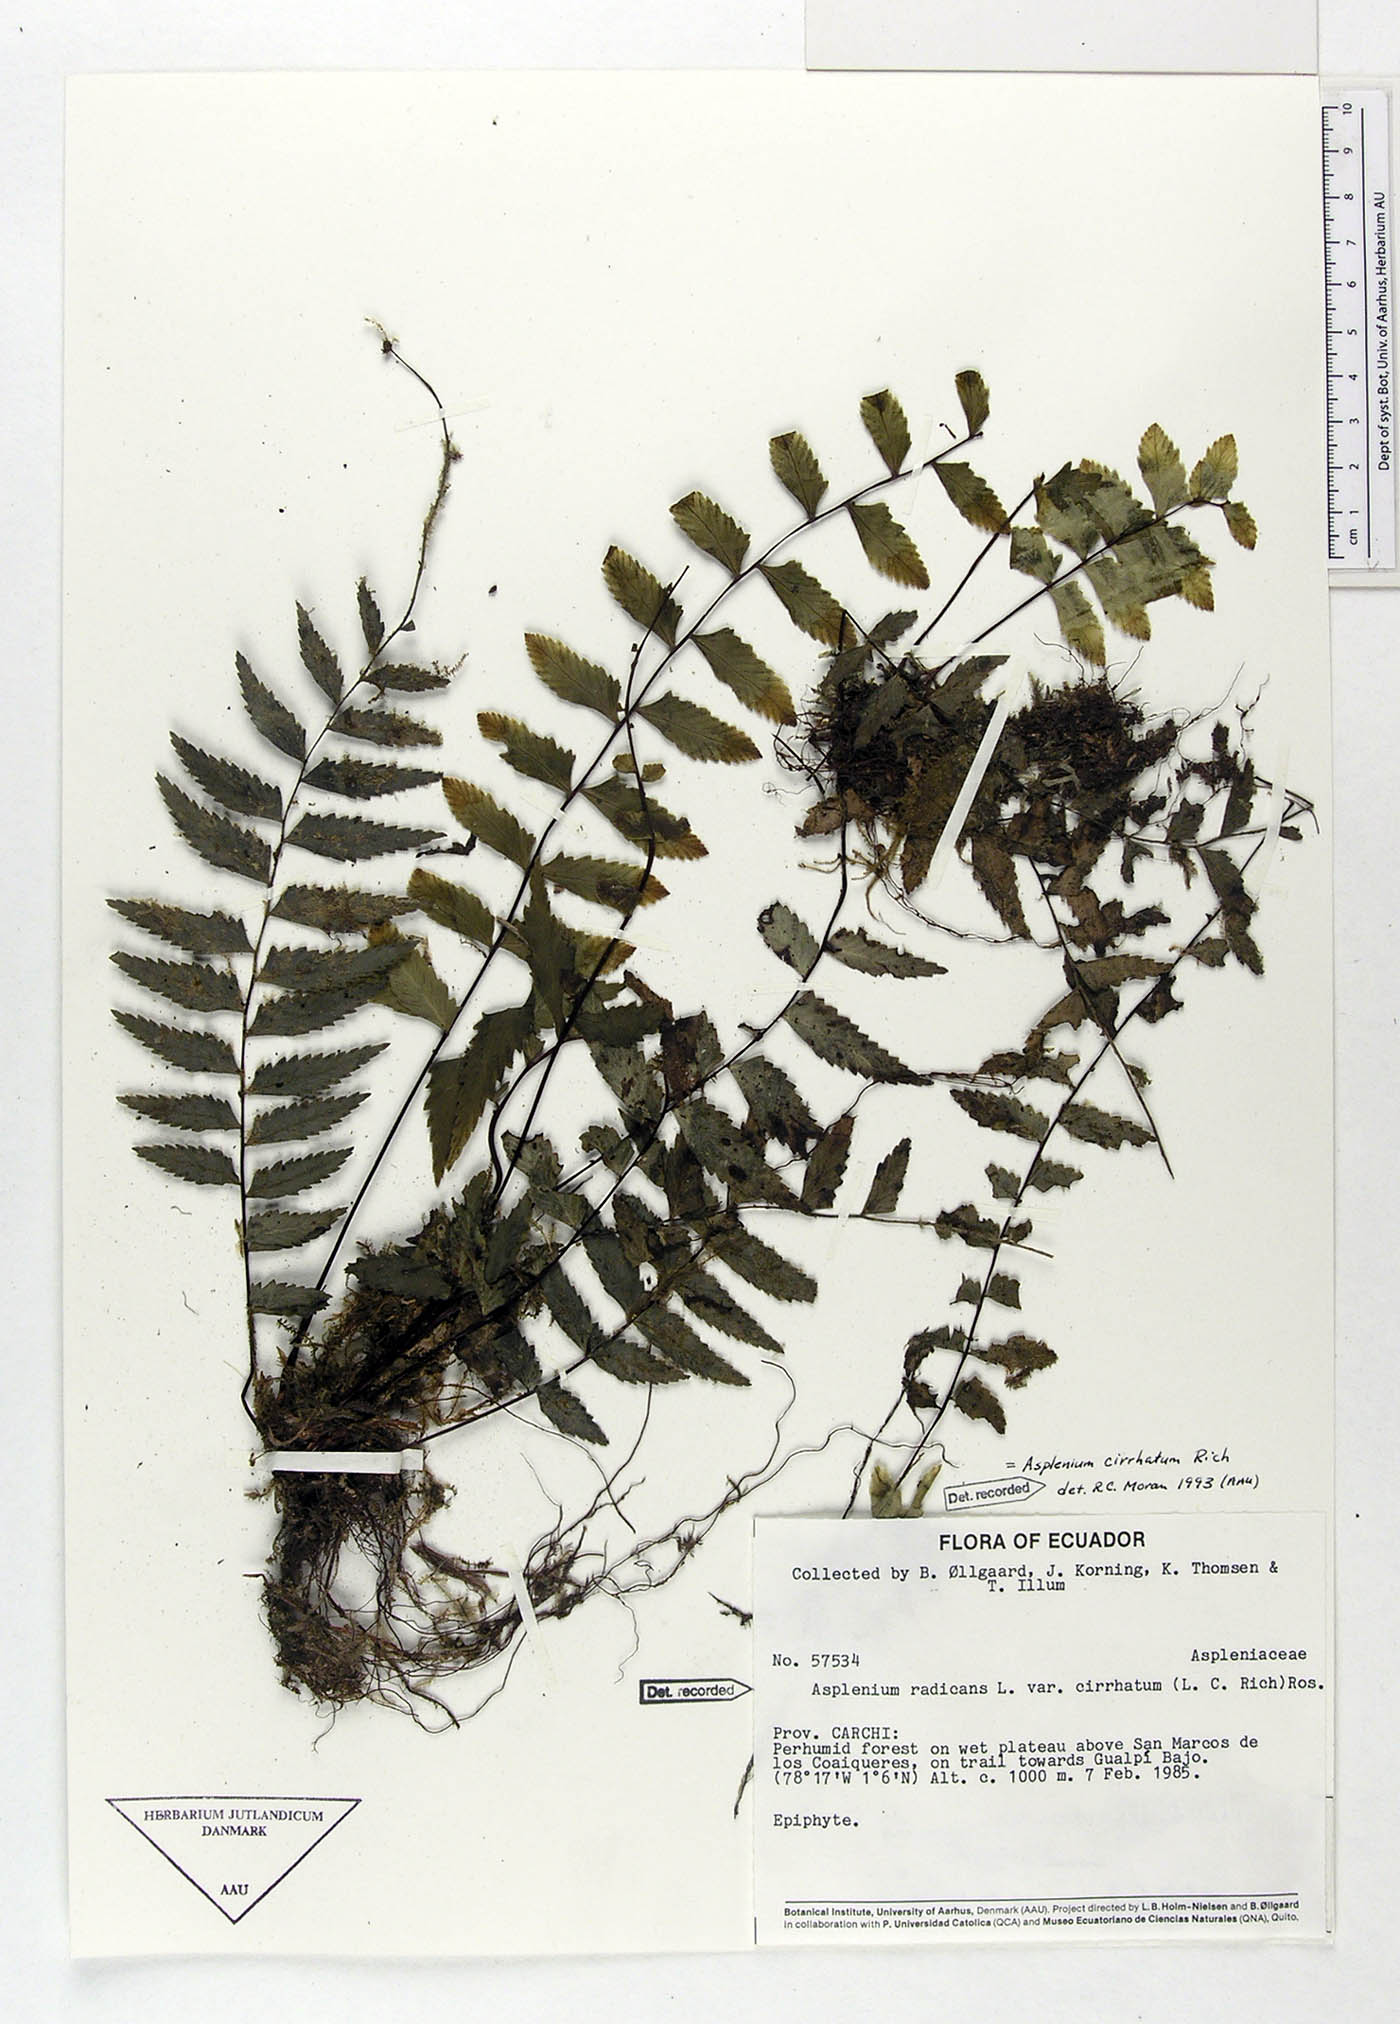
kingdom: Plantae
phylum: Tracheophyta
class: Polypodiopsida
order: Polypodiales
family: Aspleniaceae
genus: Asplenium
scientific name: Asplenium cirrhatum
